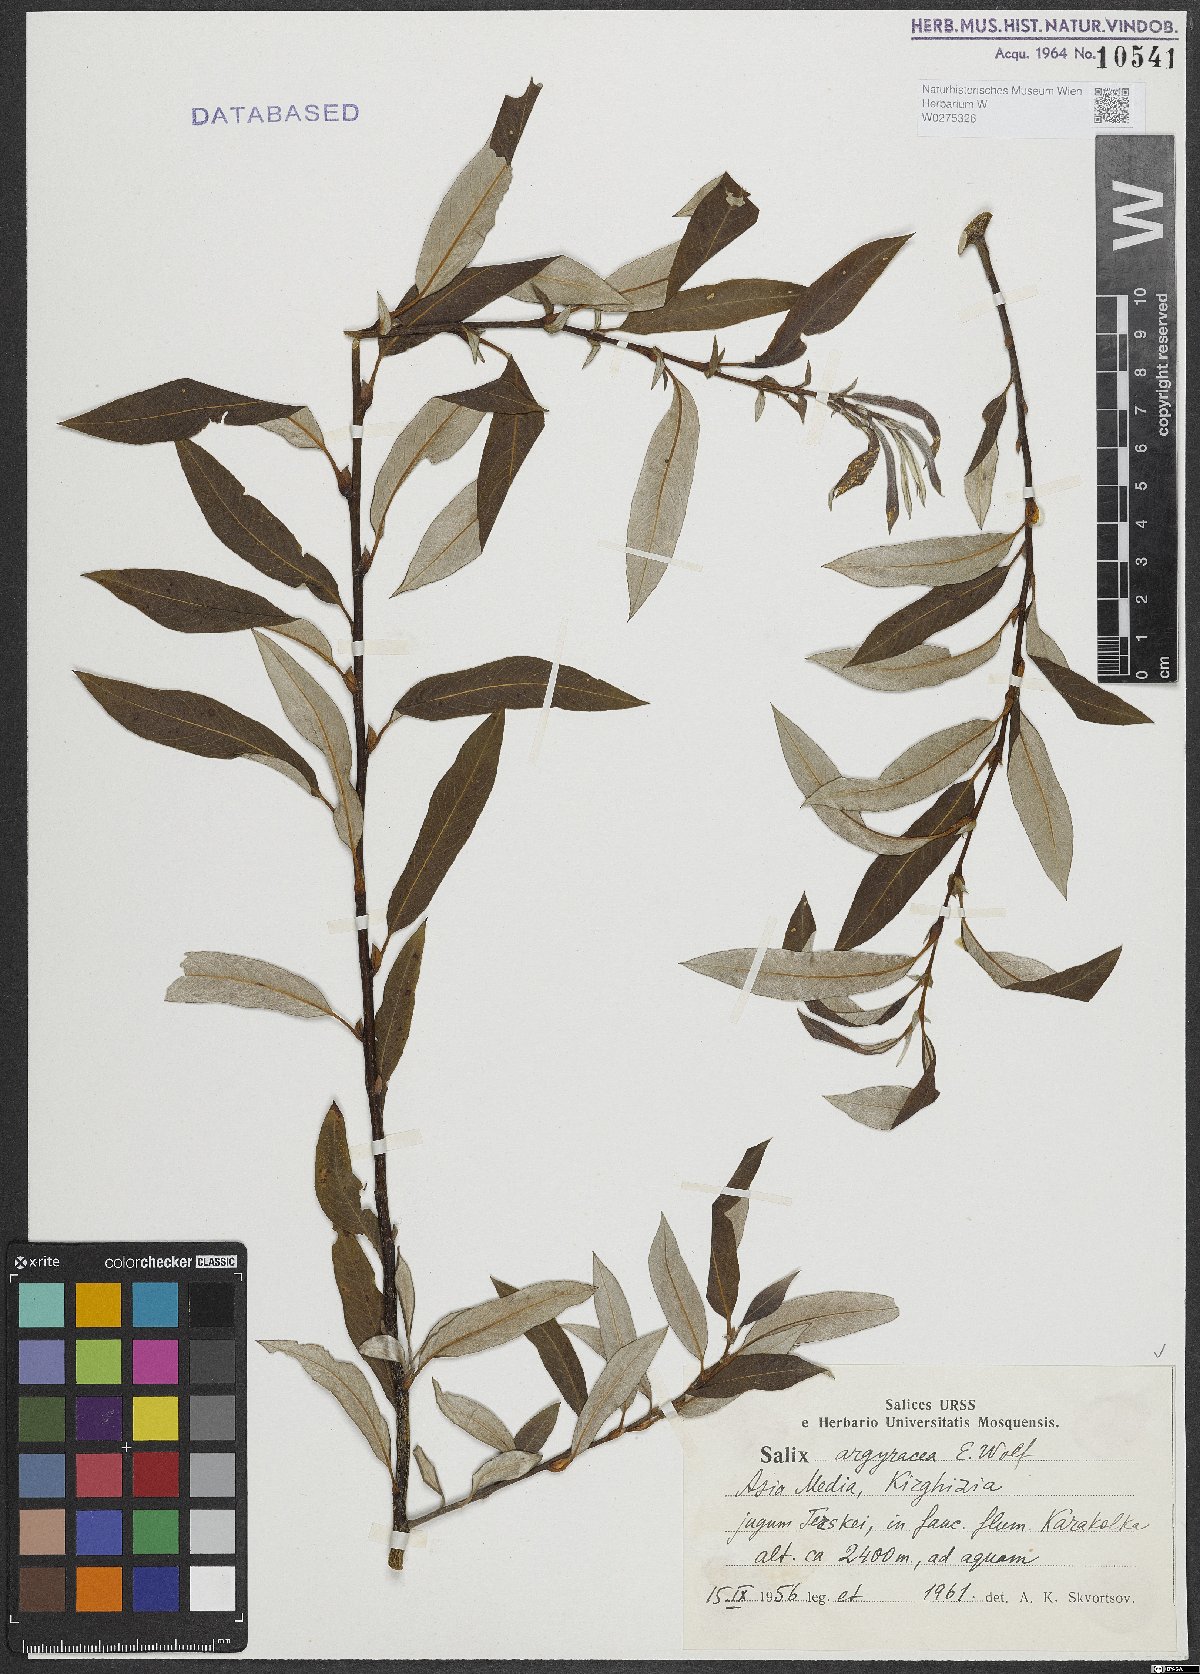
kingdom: Plantae
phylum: Tracheophyta
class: Magnoliopsida
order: Malpighiales
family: Salicaceae
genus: Salix
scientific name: Salix argyracea
